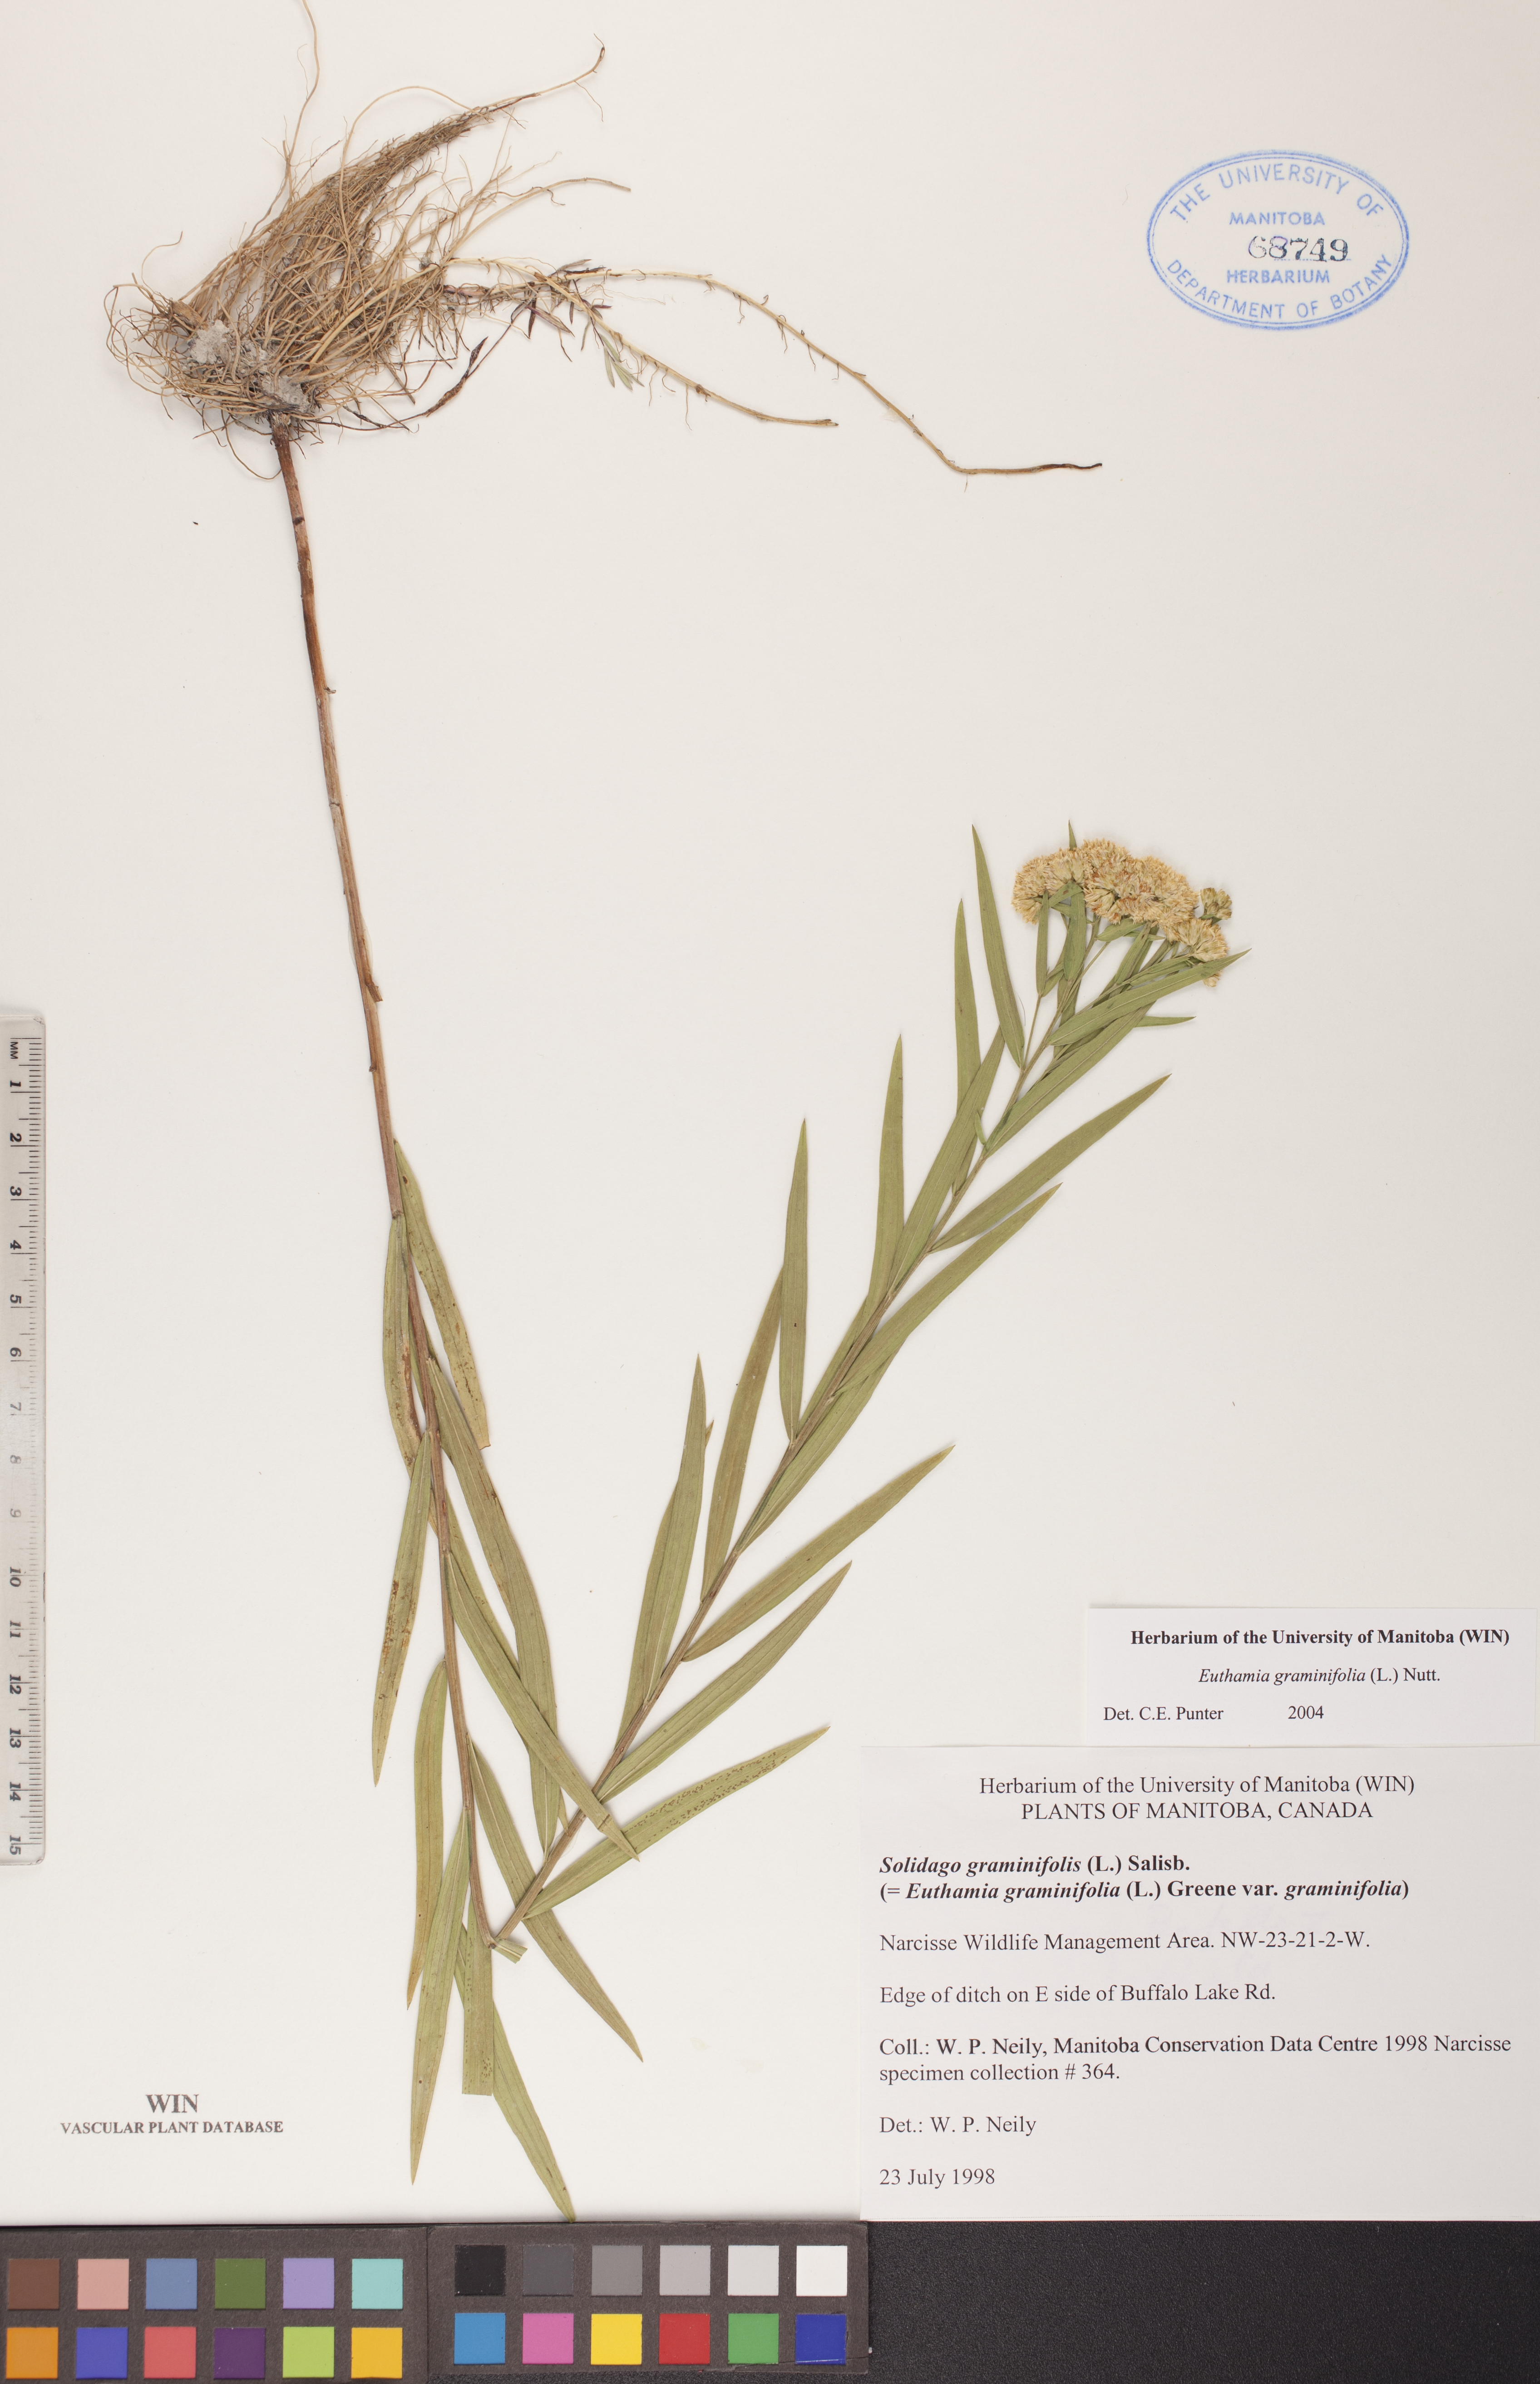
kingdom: Plantae
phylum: Tracheophyta
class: Magnoliopsida
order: Asterales
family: Asteraceae
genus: Euthamia
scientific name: Euthamia graminifolia
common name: Common goldentop
